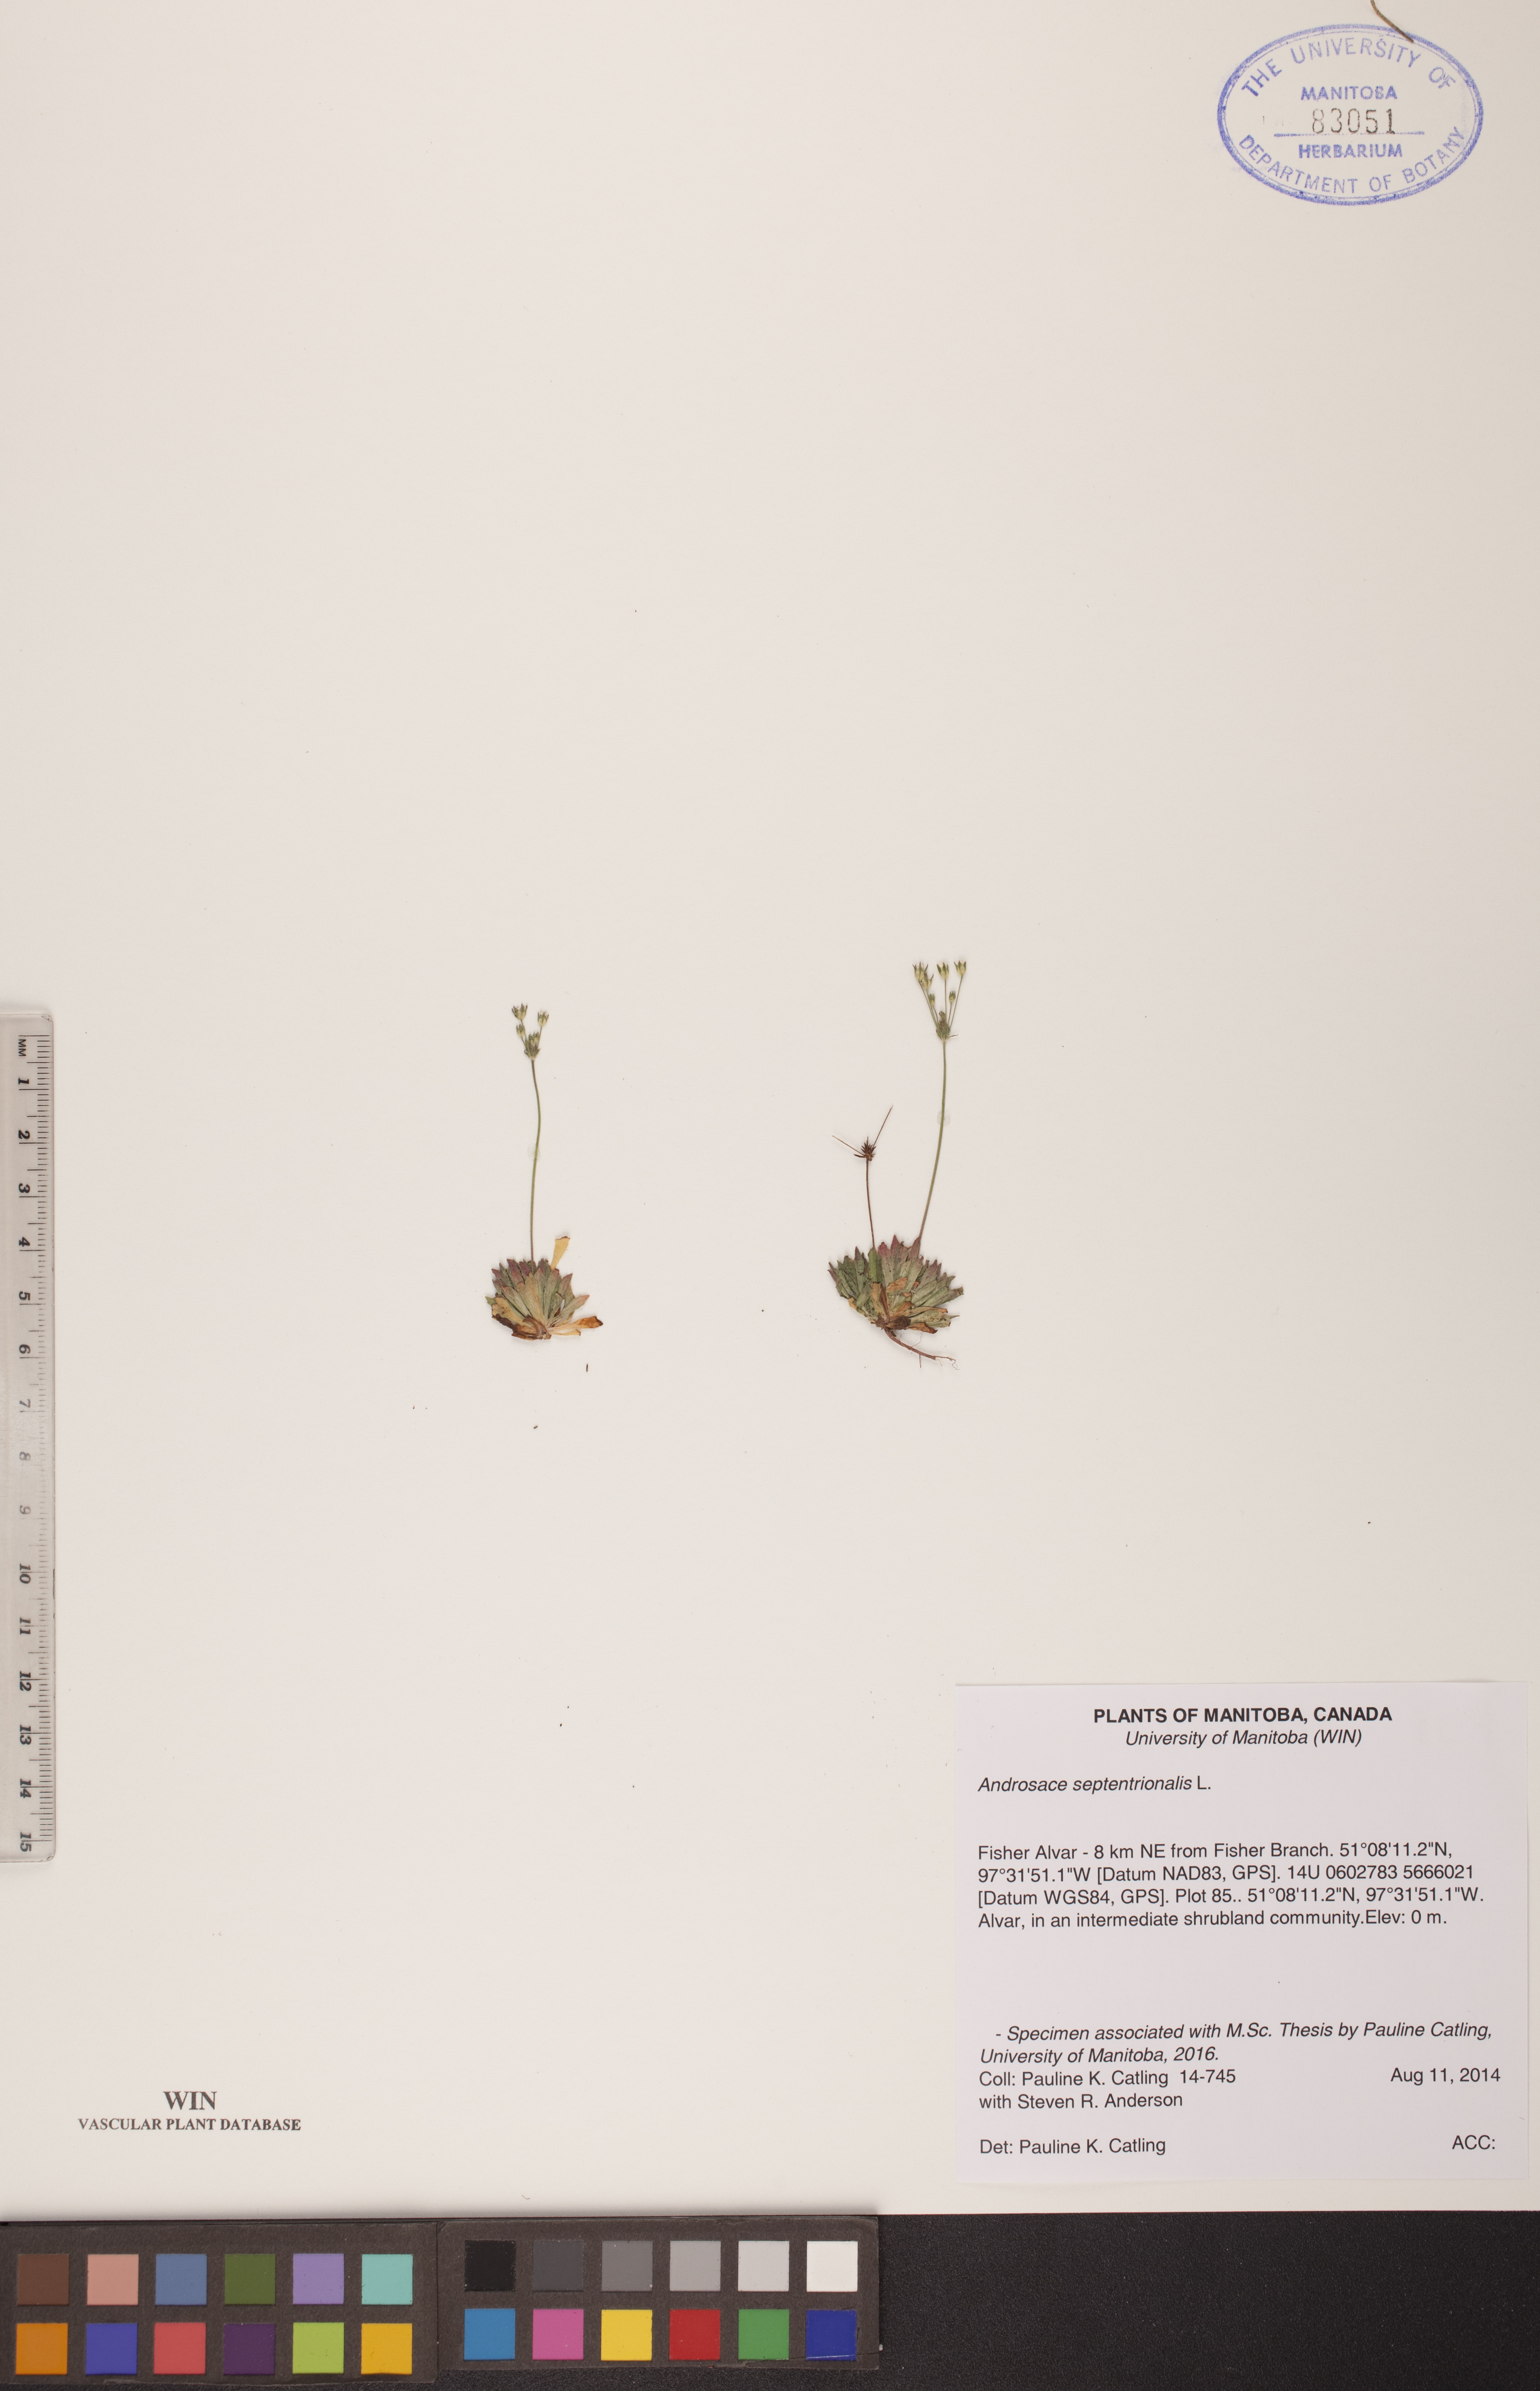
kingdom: Plantae
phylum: Tracheophyta
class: Magnoliopsida
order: Ericales
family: Primulaceae
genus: Androsace
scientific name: Androsace septentrionalis
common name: Hairy northern fairy-candelabra
